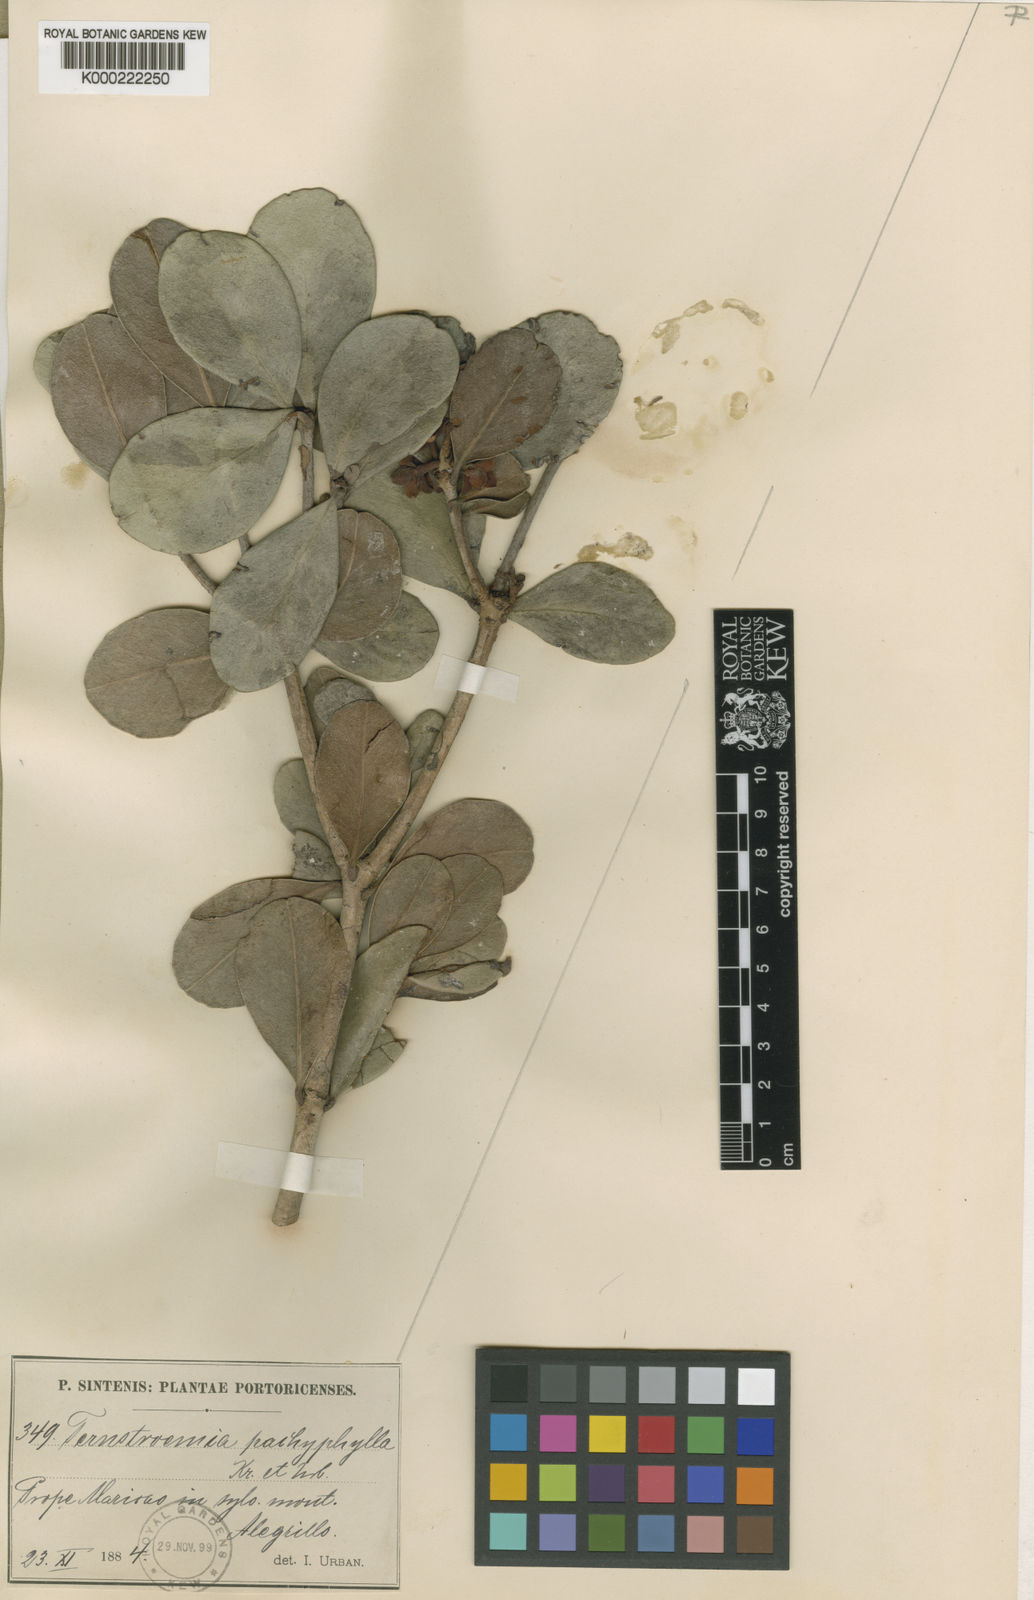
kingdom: Plantae
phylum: Tracheophyta
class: Magnoliopsida
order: Ericales
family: Pentaphylacaceae
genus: Ternstroemia
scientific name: Ternstroemia stahlii
